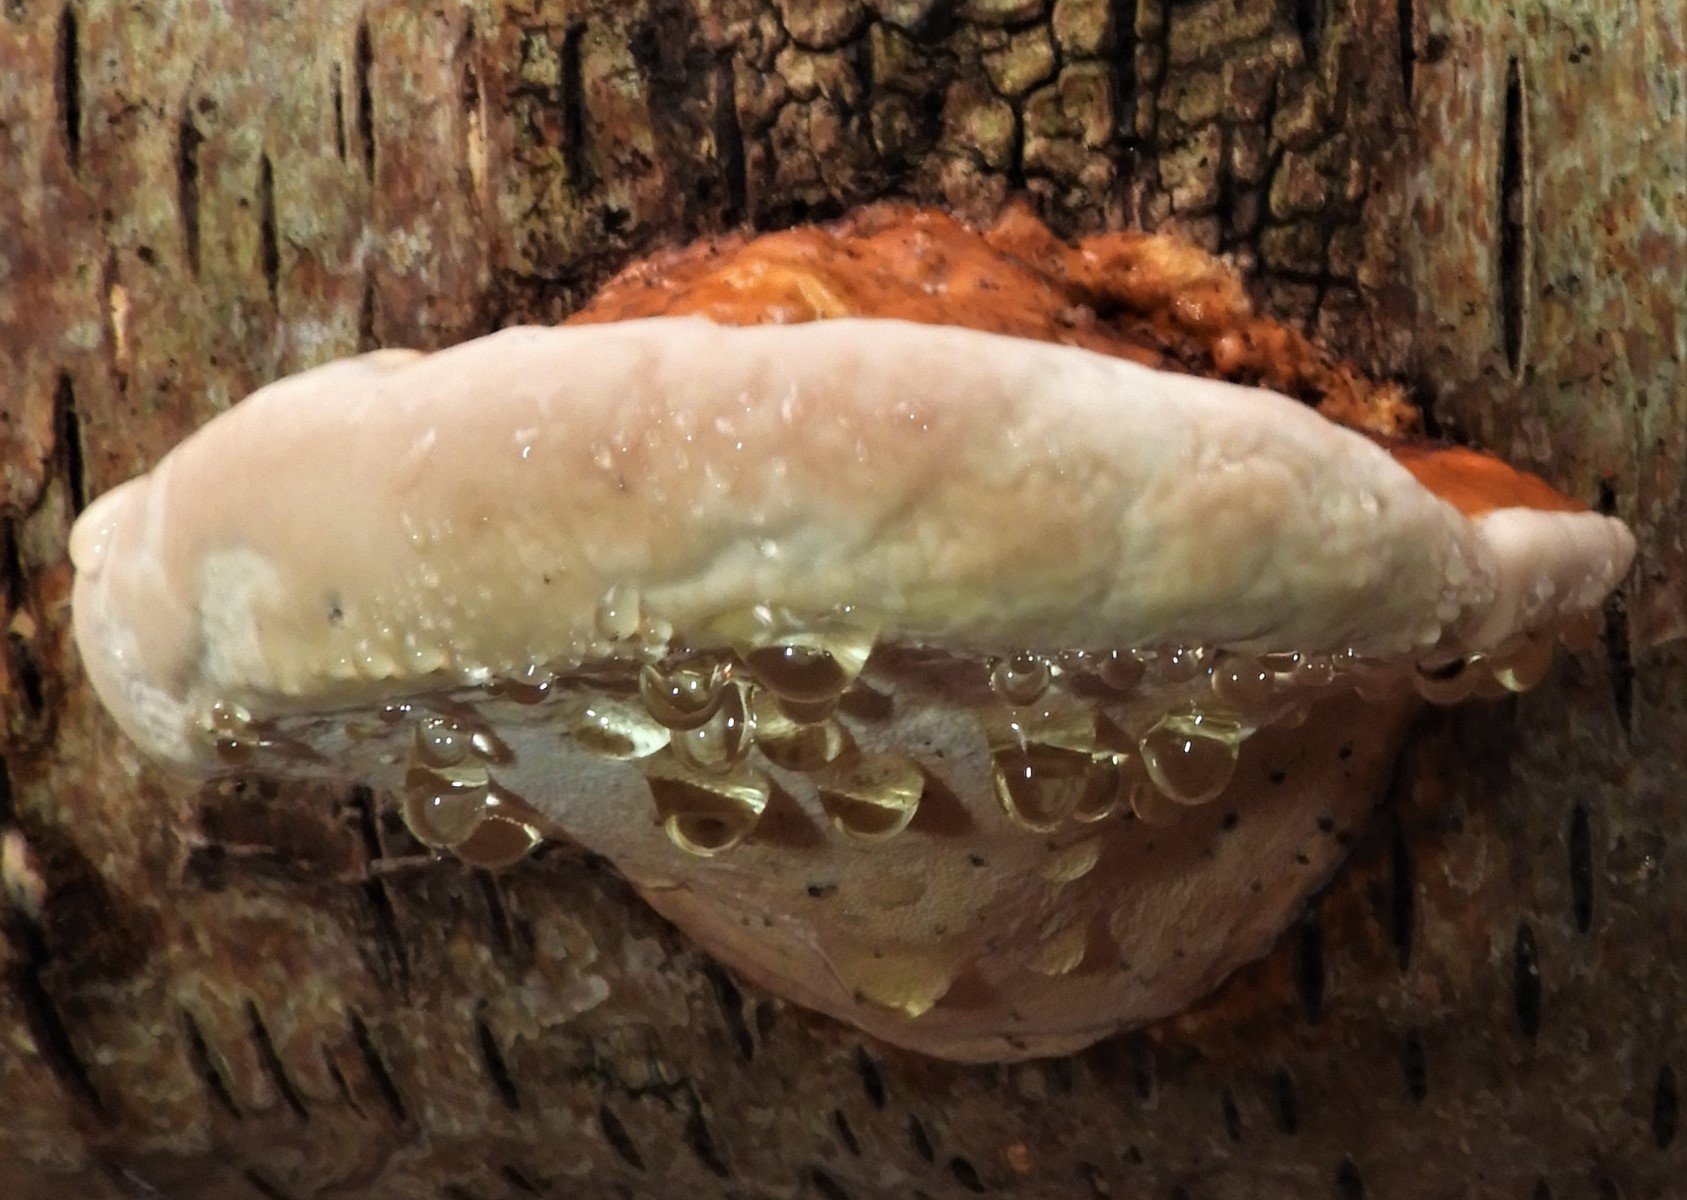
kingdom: Fungi
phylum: Basidiomycota
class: Agaricomycetes
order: Polyporales
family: Fomitopsidaceae
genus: Fomitopsis
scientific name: Fomitopsis pinicola
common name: randbæltet hovporesvamp
